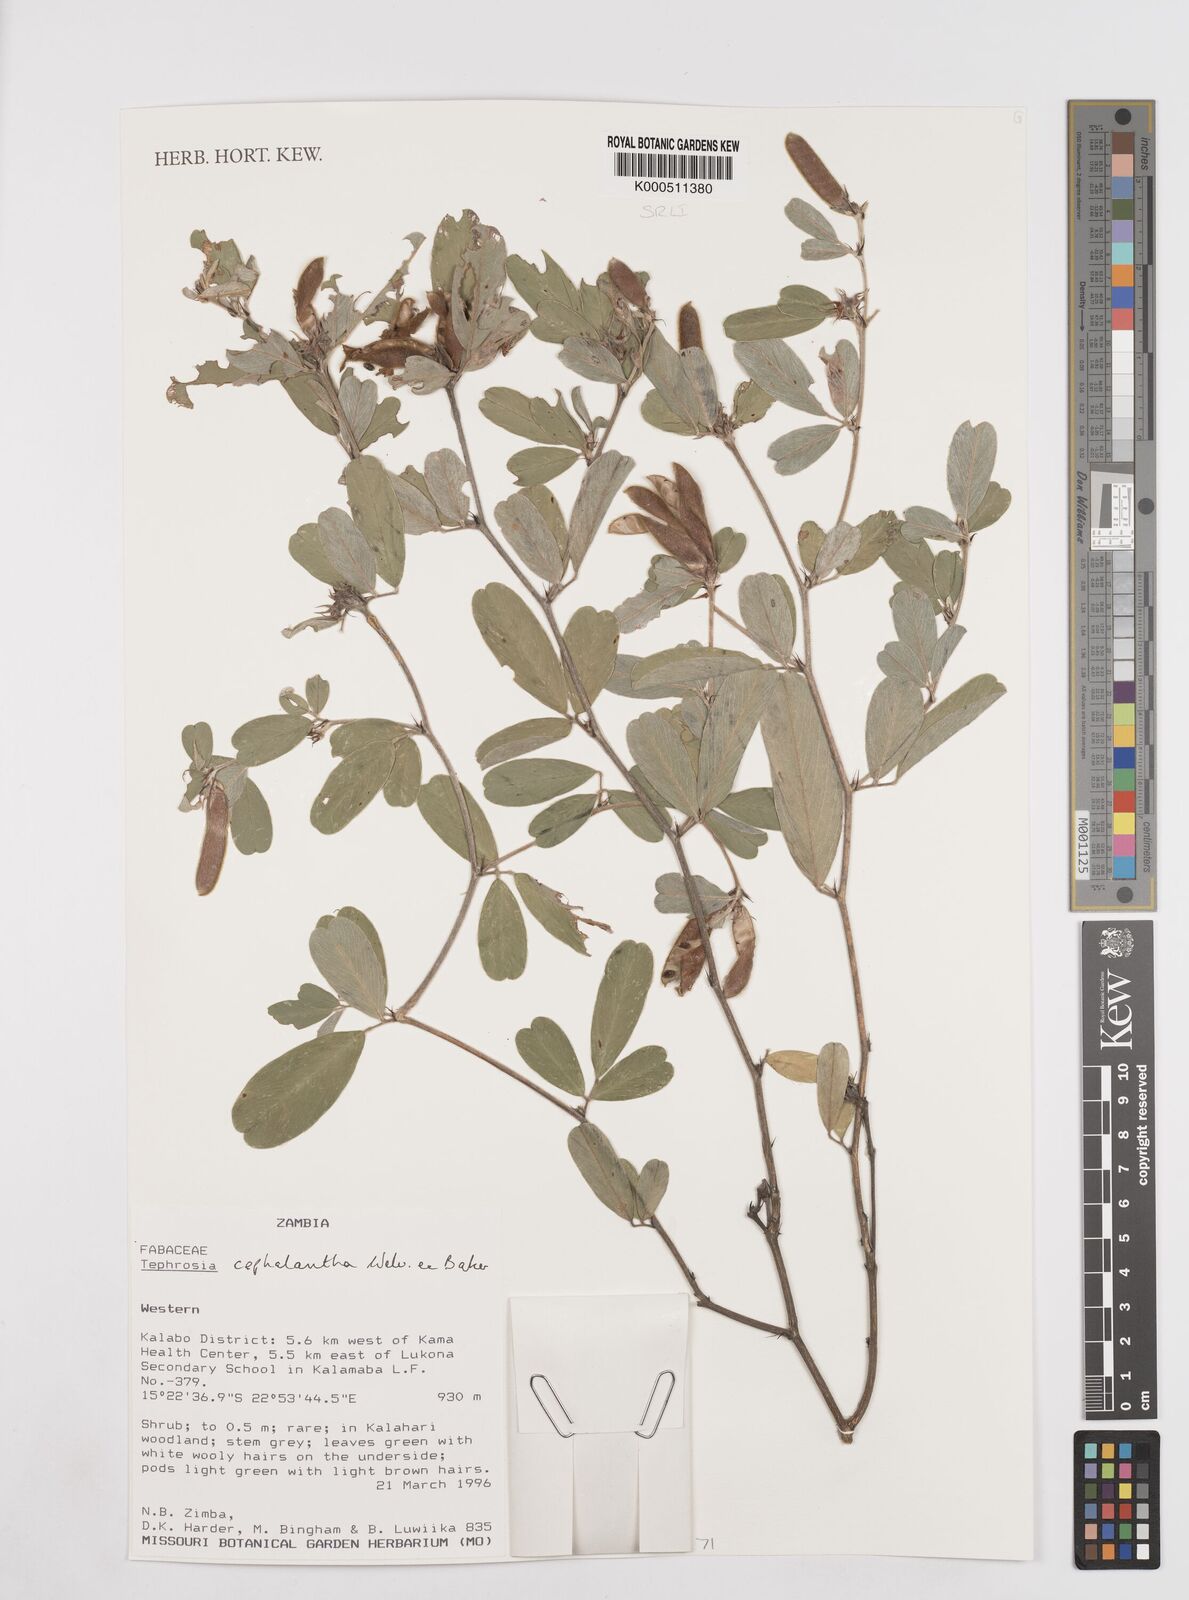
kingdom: Plantae
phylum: Tracheophyta
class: Magnoliopsida
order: Fabales
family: Fabaceae
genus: Tephrosia
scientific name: Tephrosia cephalantha
